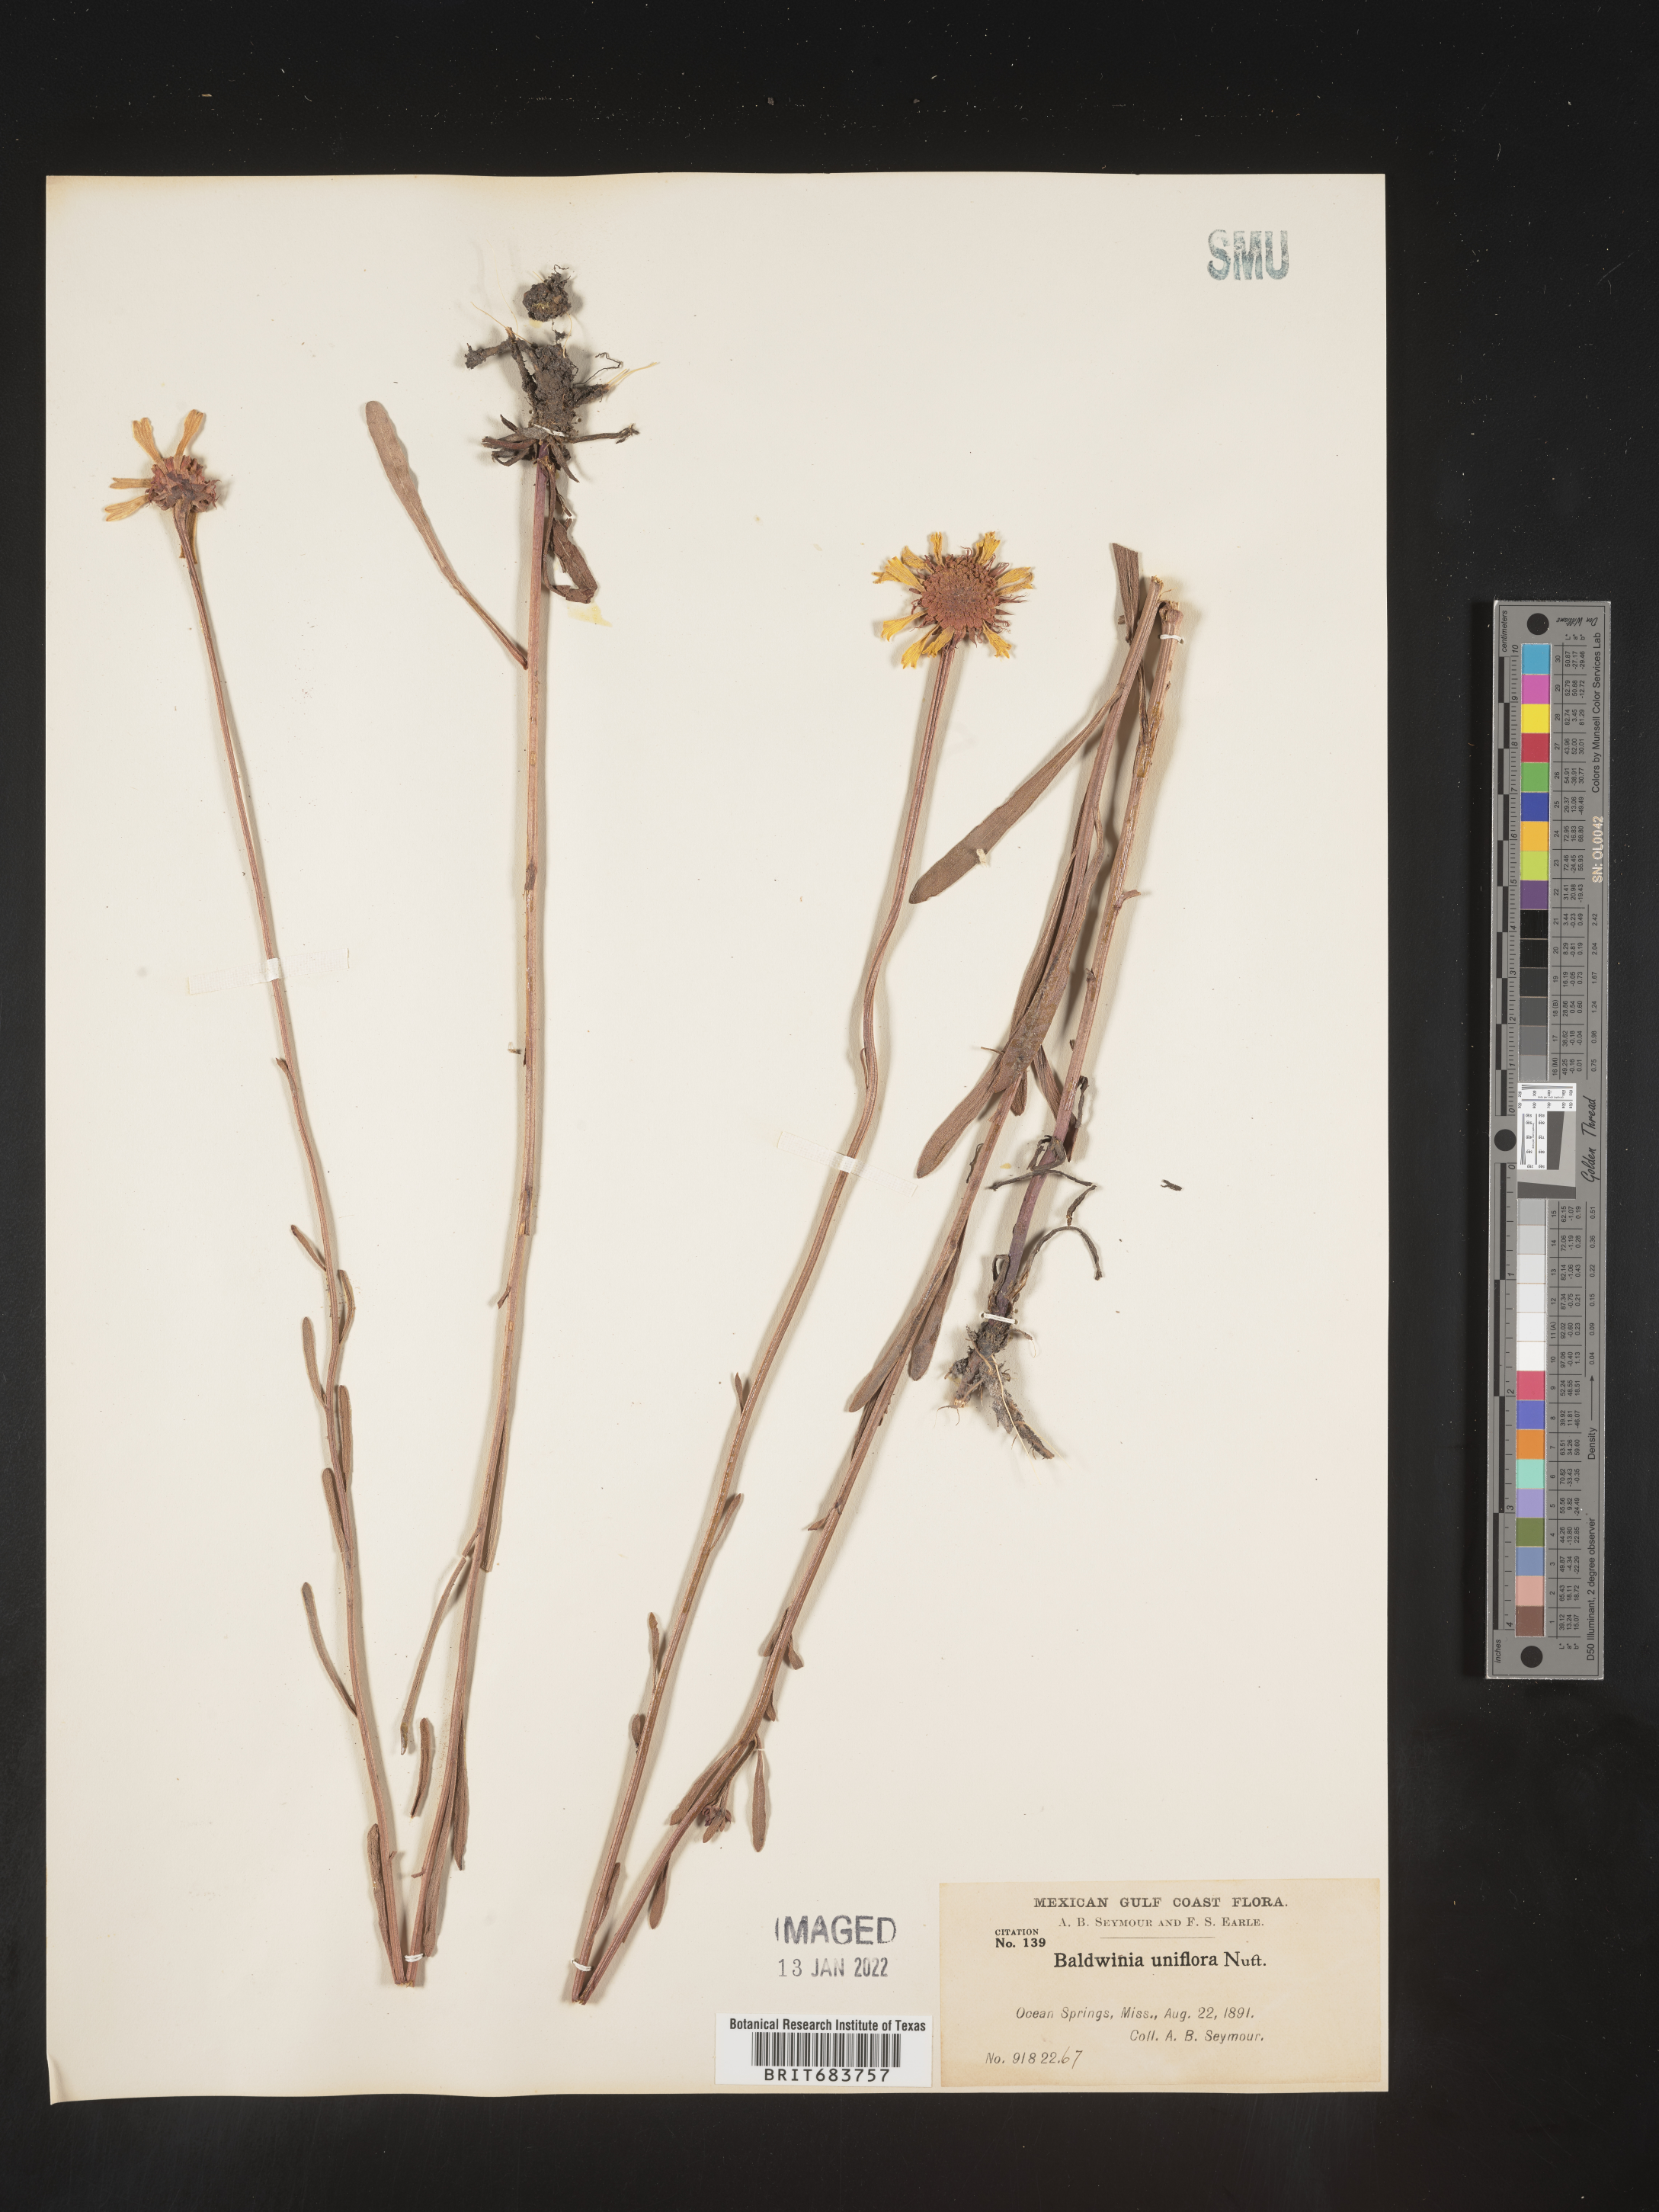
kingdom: Plantae
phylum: Tracheophyta
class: Magnoliopsida
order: Asterales
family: Asteraceae
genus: Balduina
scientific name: Balduina uniflora
